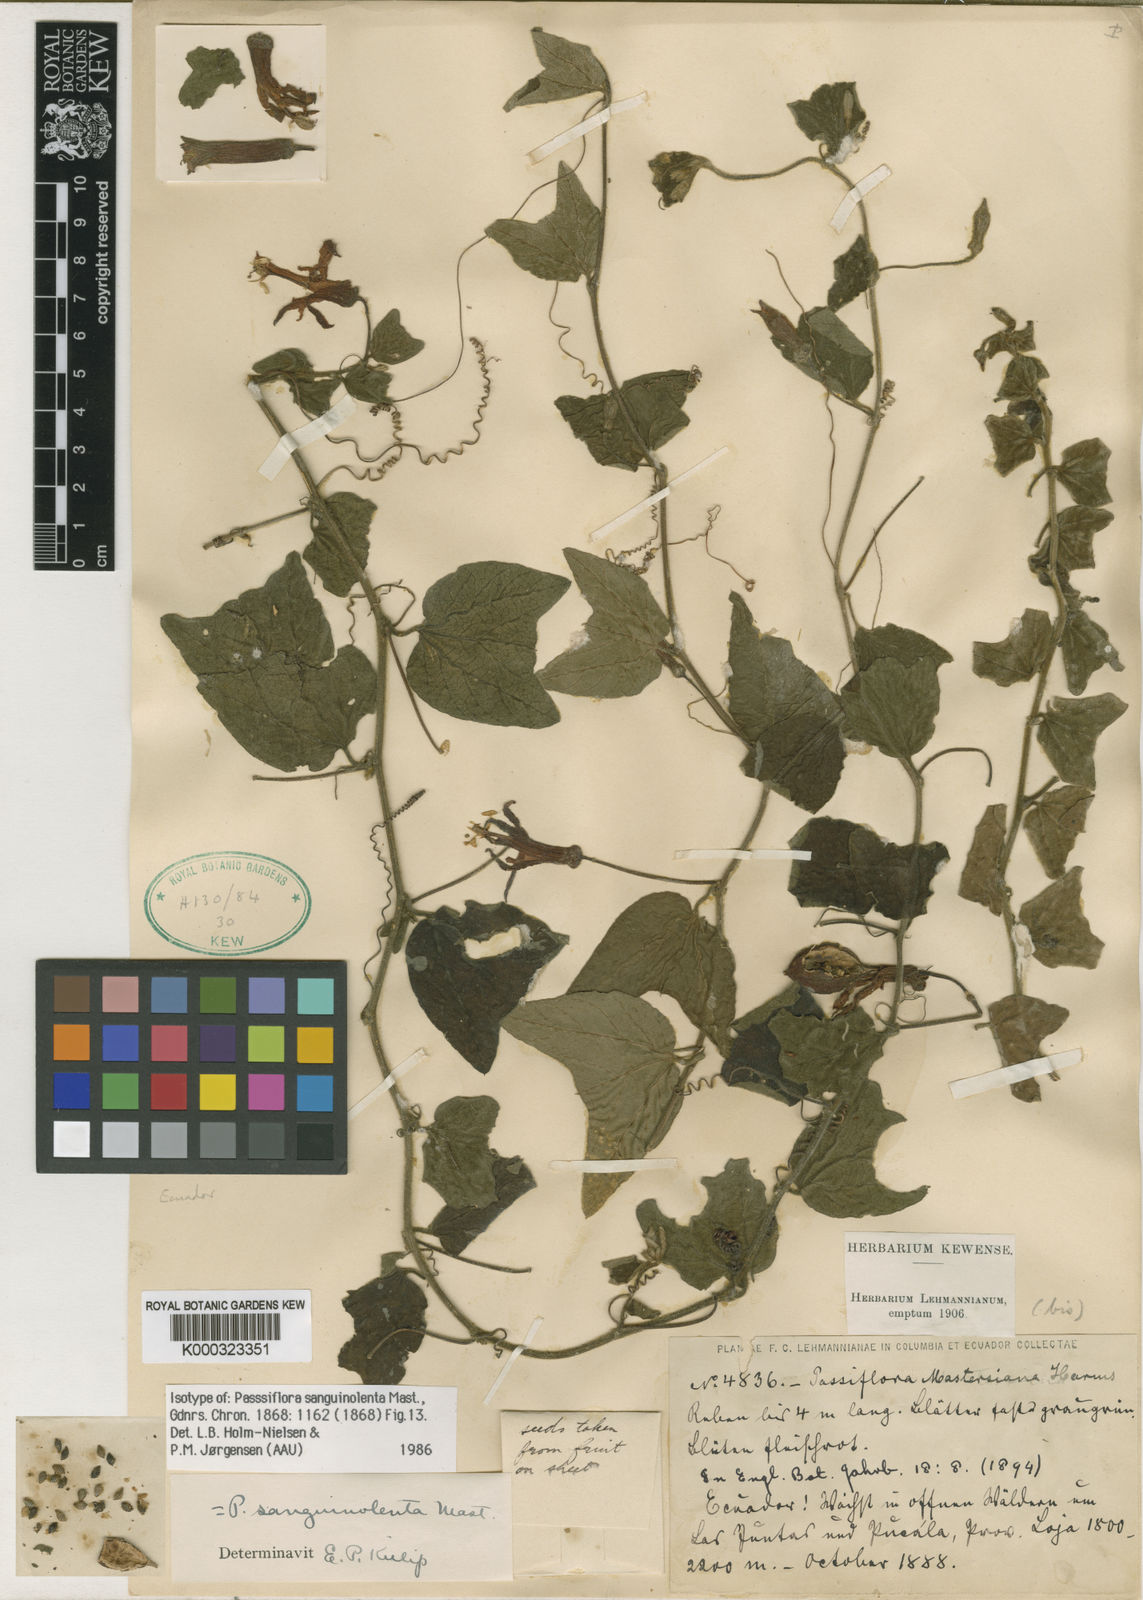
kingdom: Plantae
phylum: Tracheophyta
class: Magnoliopsida
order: Malpighiales
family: Passifloraceae
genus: Passiflora
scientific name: Passiflora sanguinolenta
